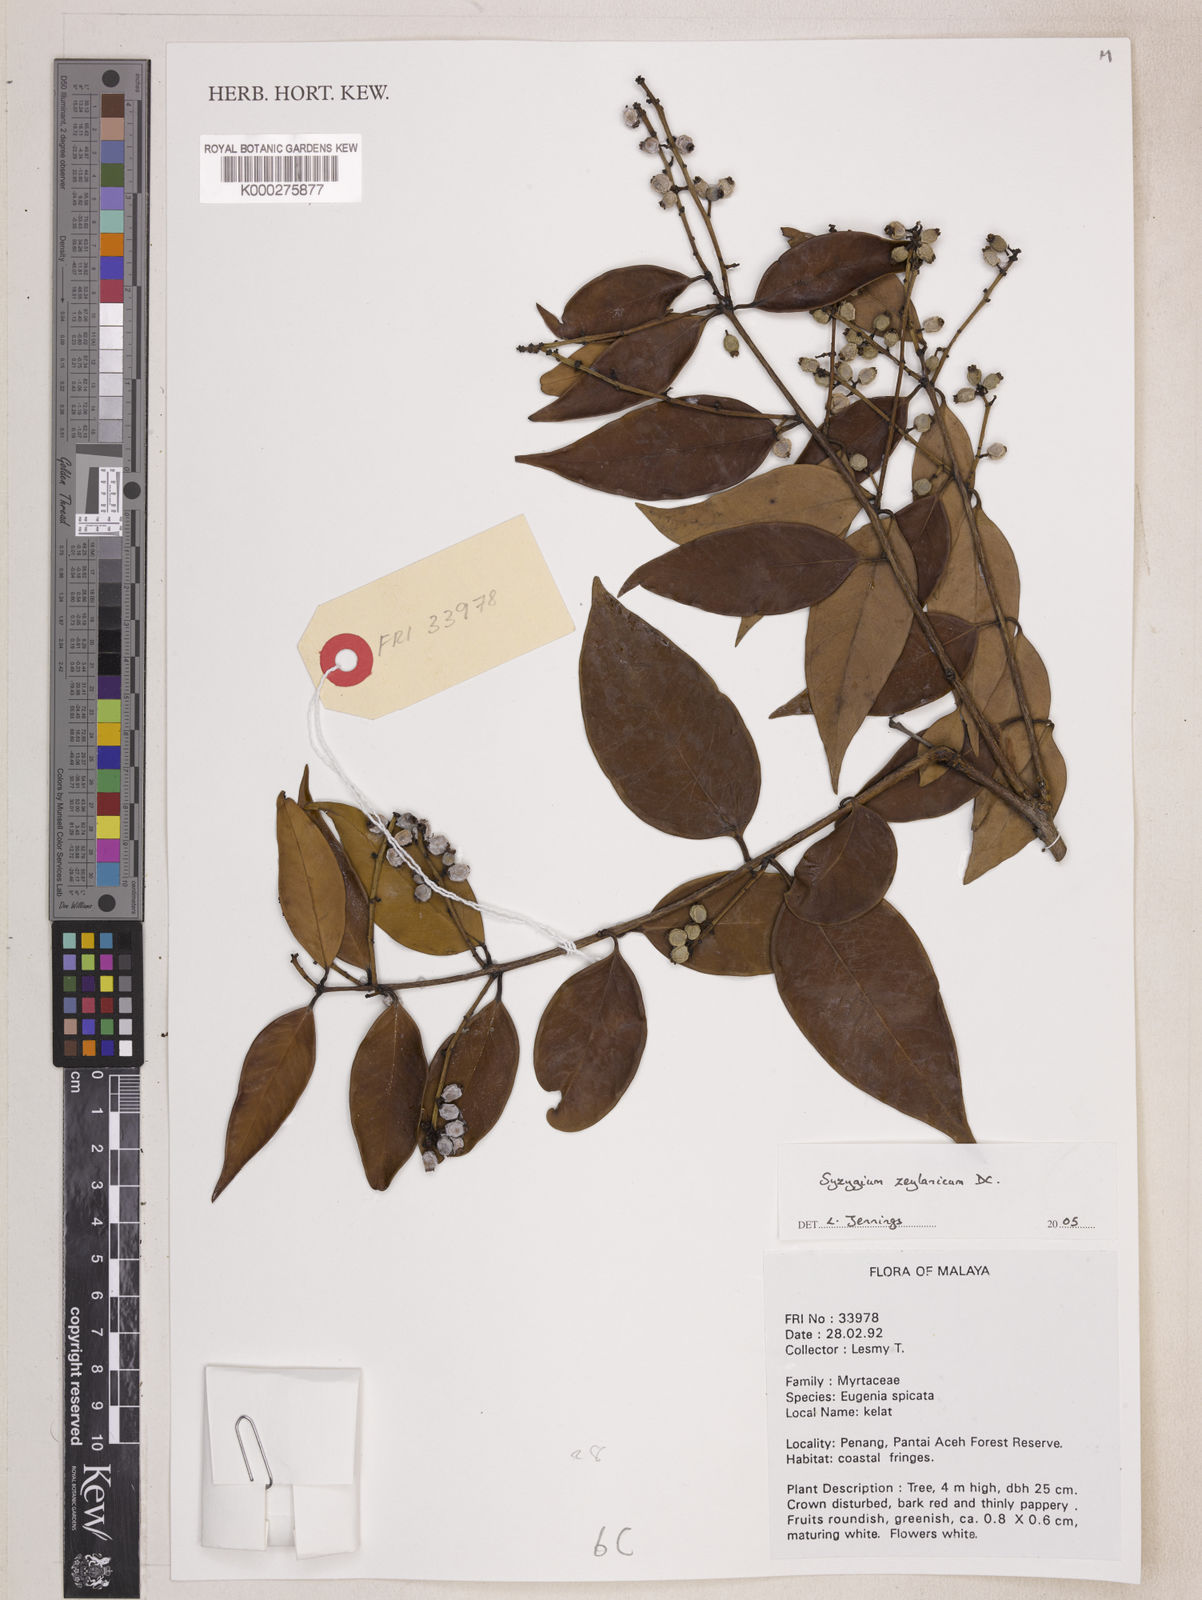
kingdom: Plantae
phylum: Tracheophyta
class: Magnoliopsida
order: Myrtales
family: Myrtaceae
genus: Syzygium
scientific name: Syzygium zeylanicum
